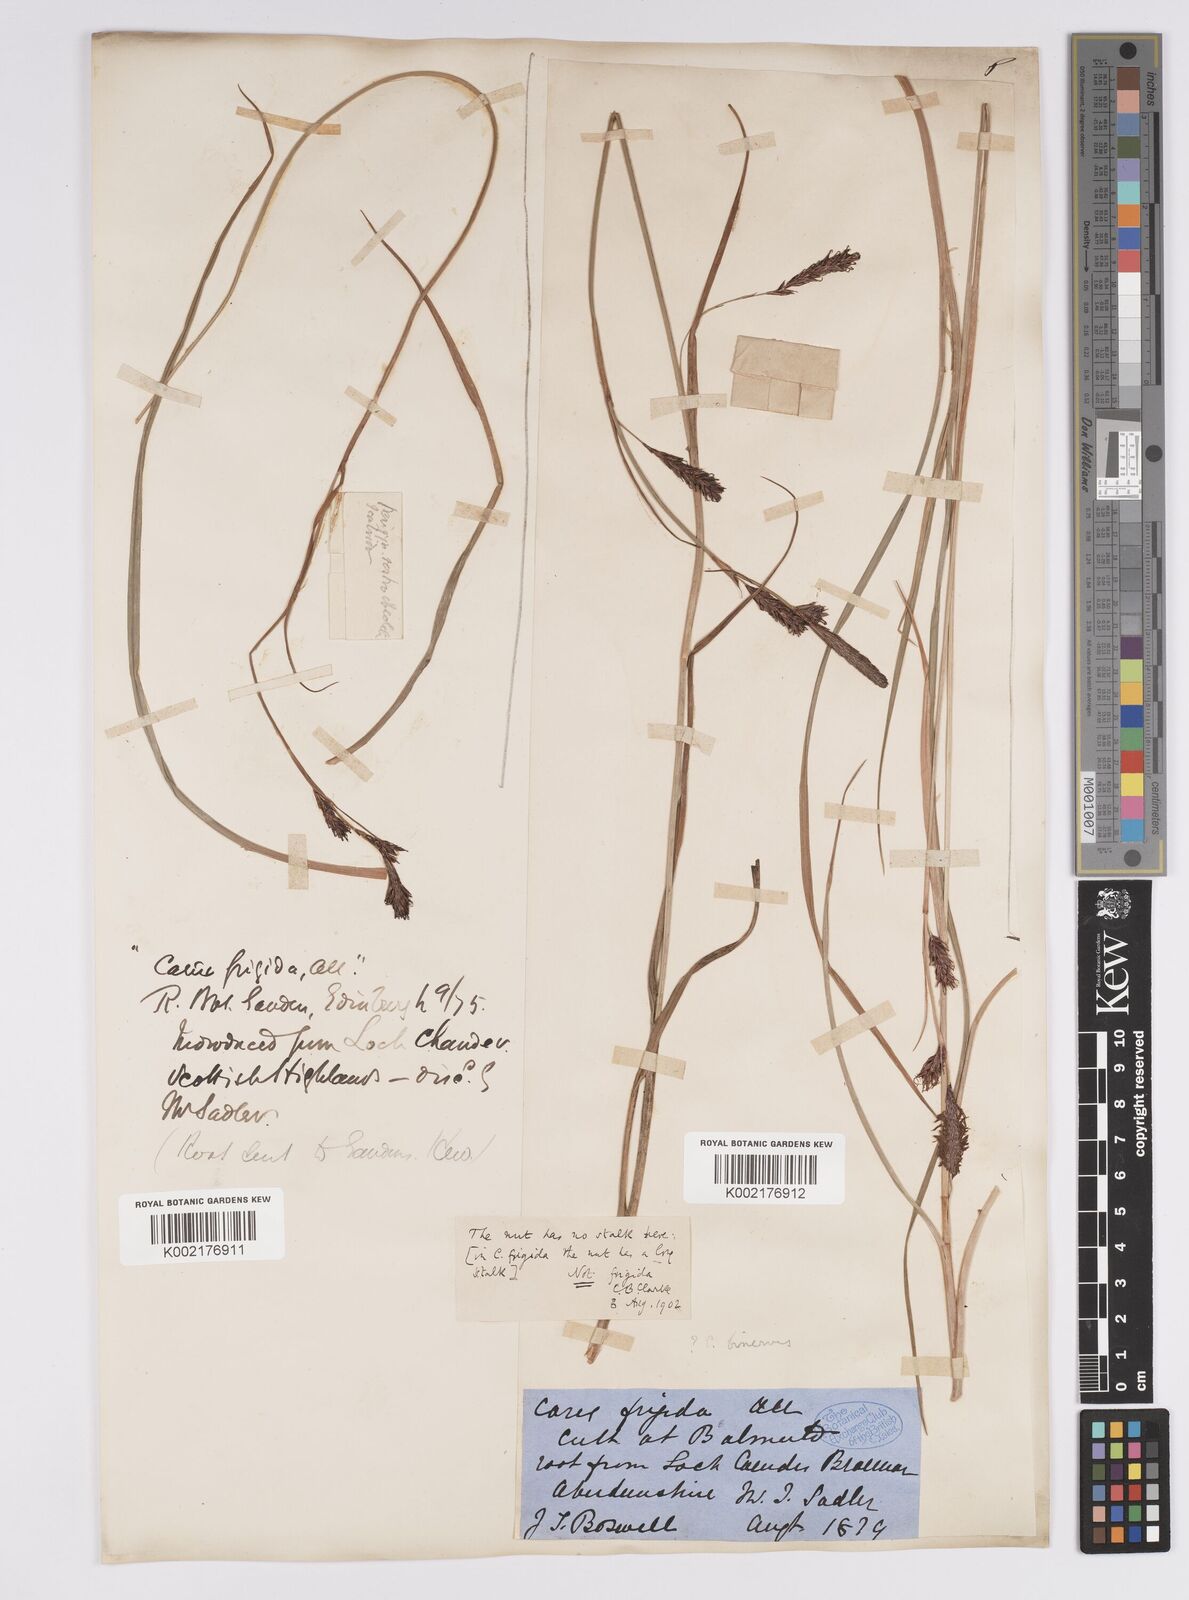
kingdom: Plantae
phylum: Tracheophyta
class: Liliopsida
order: Poales
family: Cyperaceae
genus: Carex
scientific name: Carex
